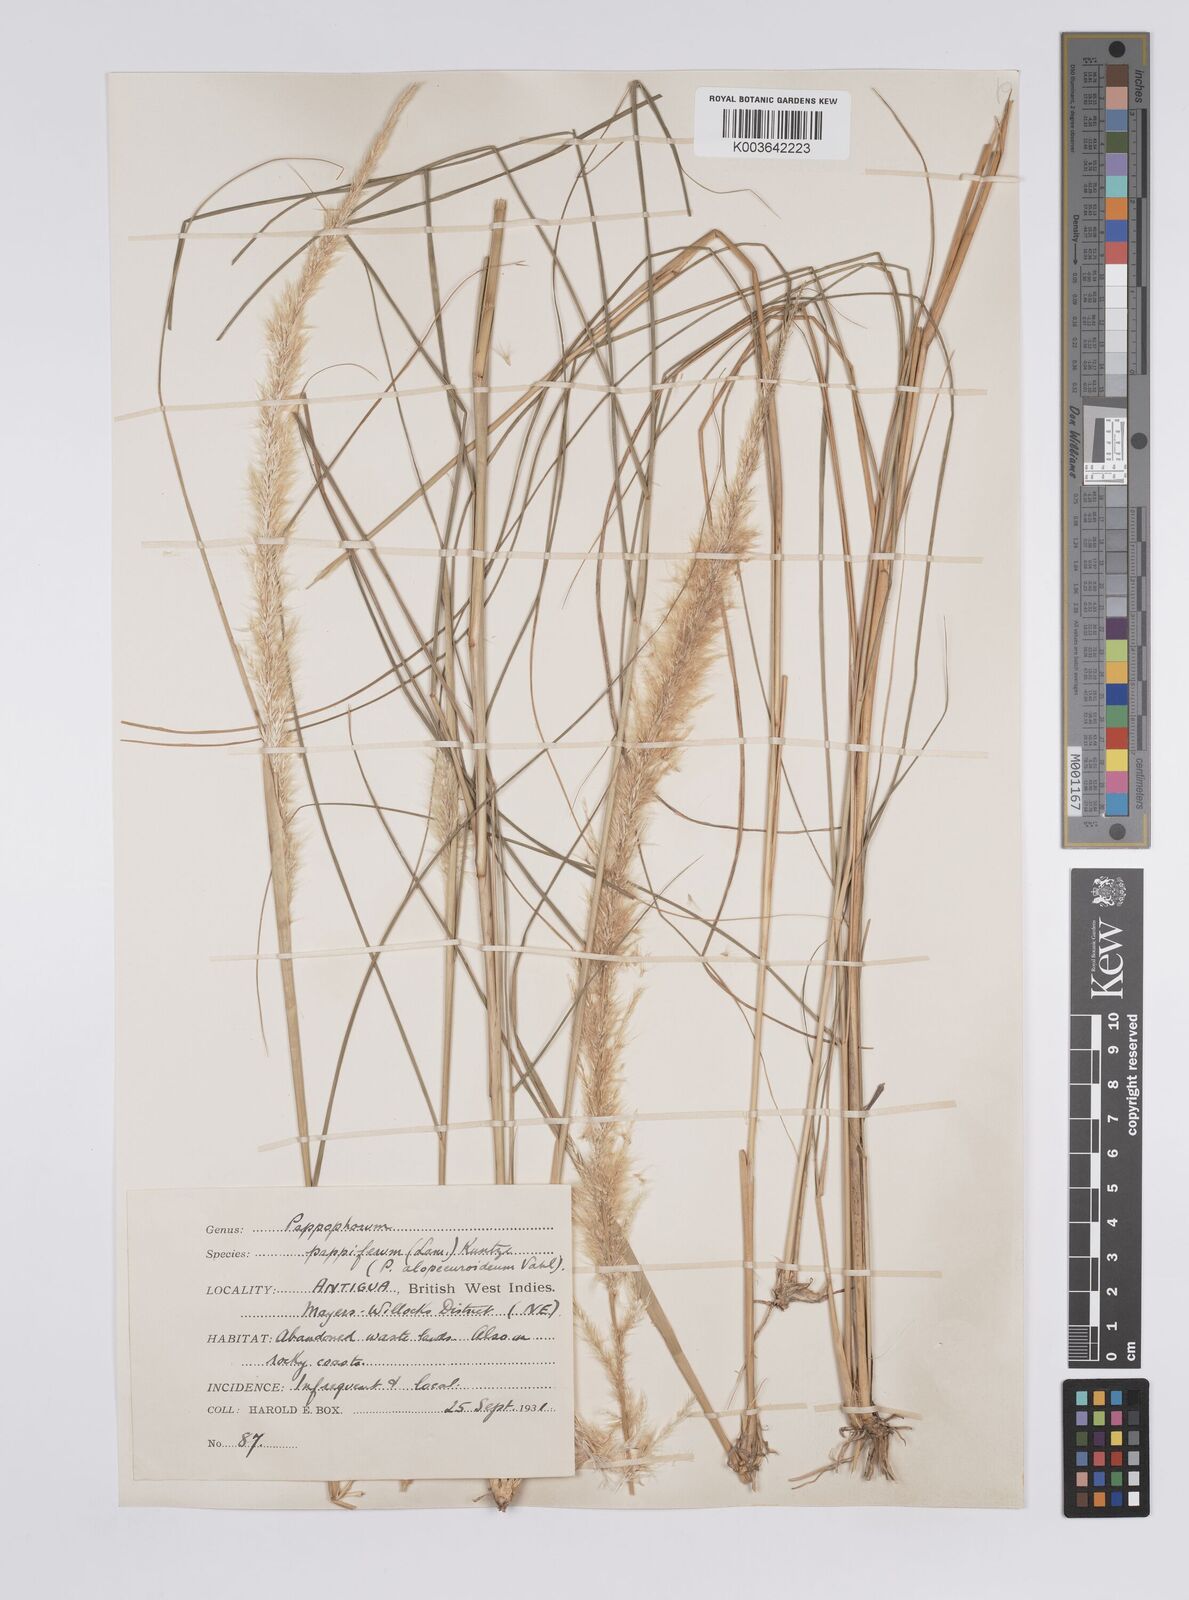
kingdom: Plantae
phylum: Tracheophyta
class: Liliopsida
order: Poales
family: Poaceae
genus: Pappophorum
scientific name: Pappophorum pappiferum
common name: Crabgrass
